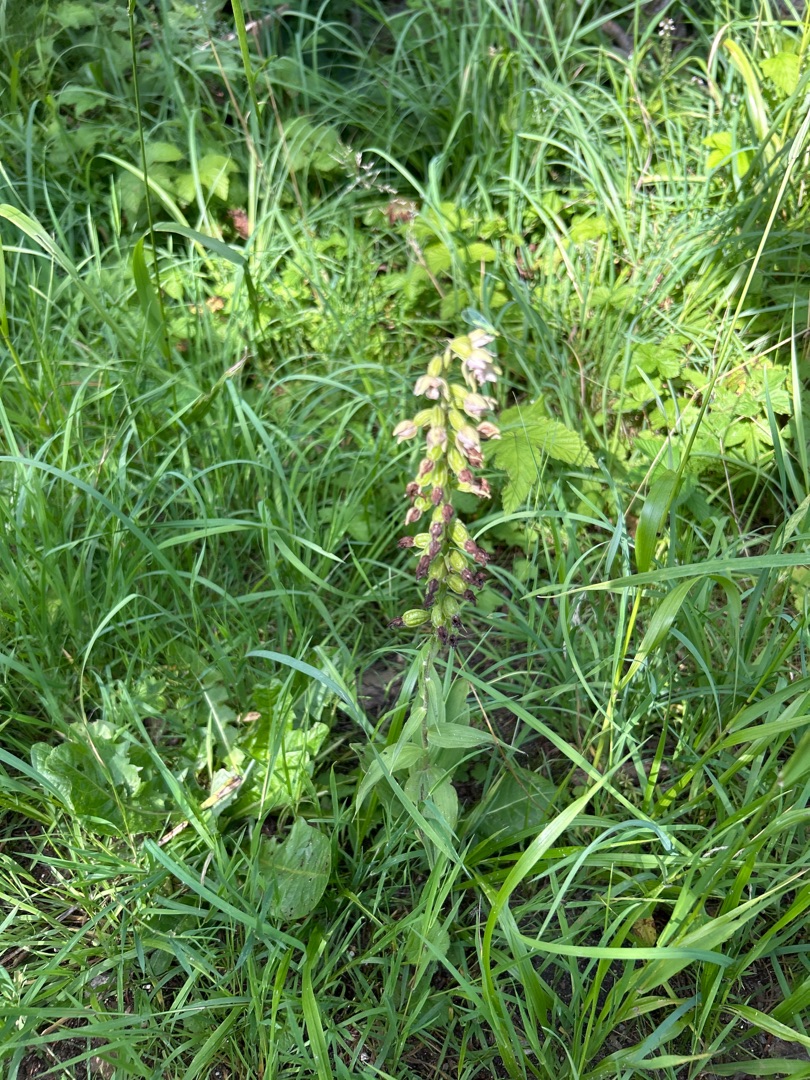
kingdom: Plantae
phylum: Tracheophyta
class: Liliopsida
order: Asparagales
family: Orchidaceae
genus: Epipactis
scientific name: Epipactis helleborine
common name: Skov-hullæbe
